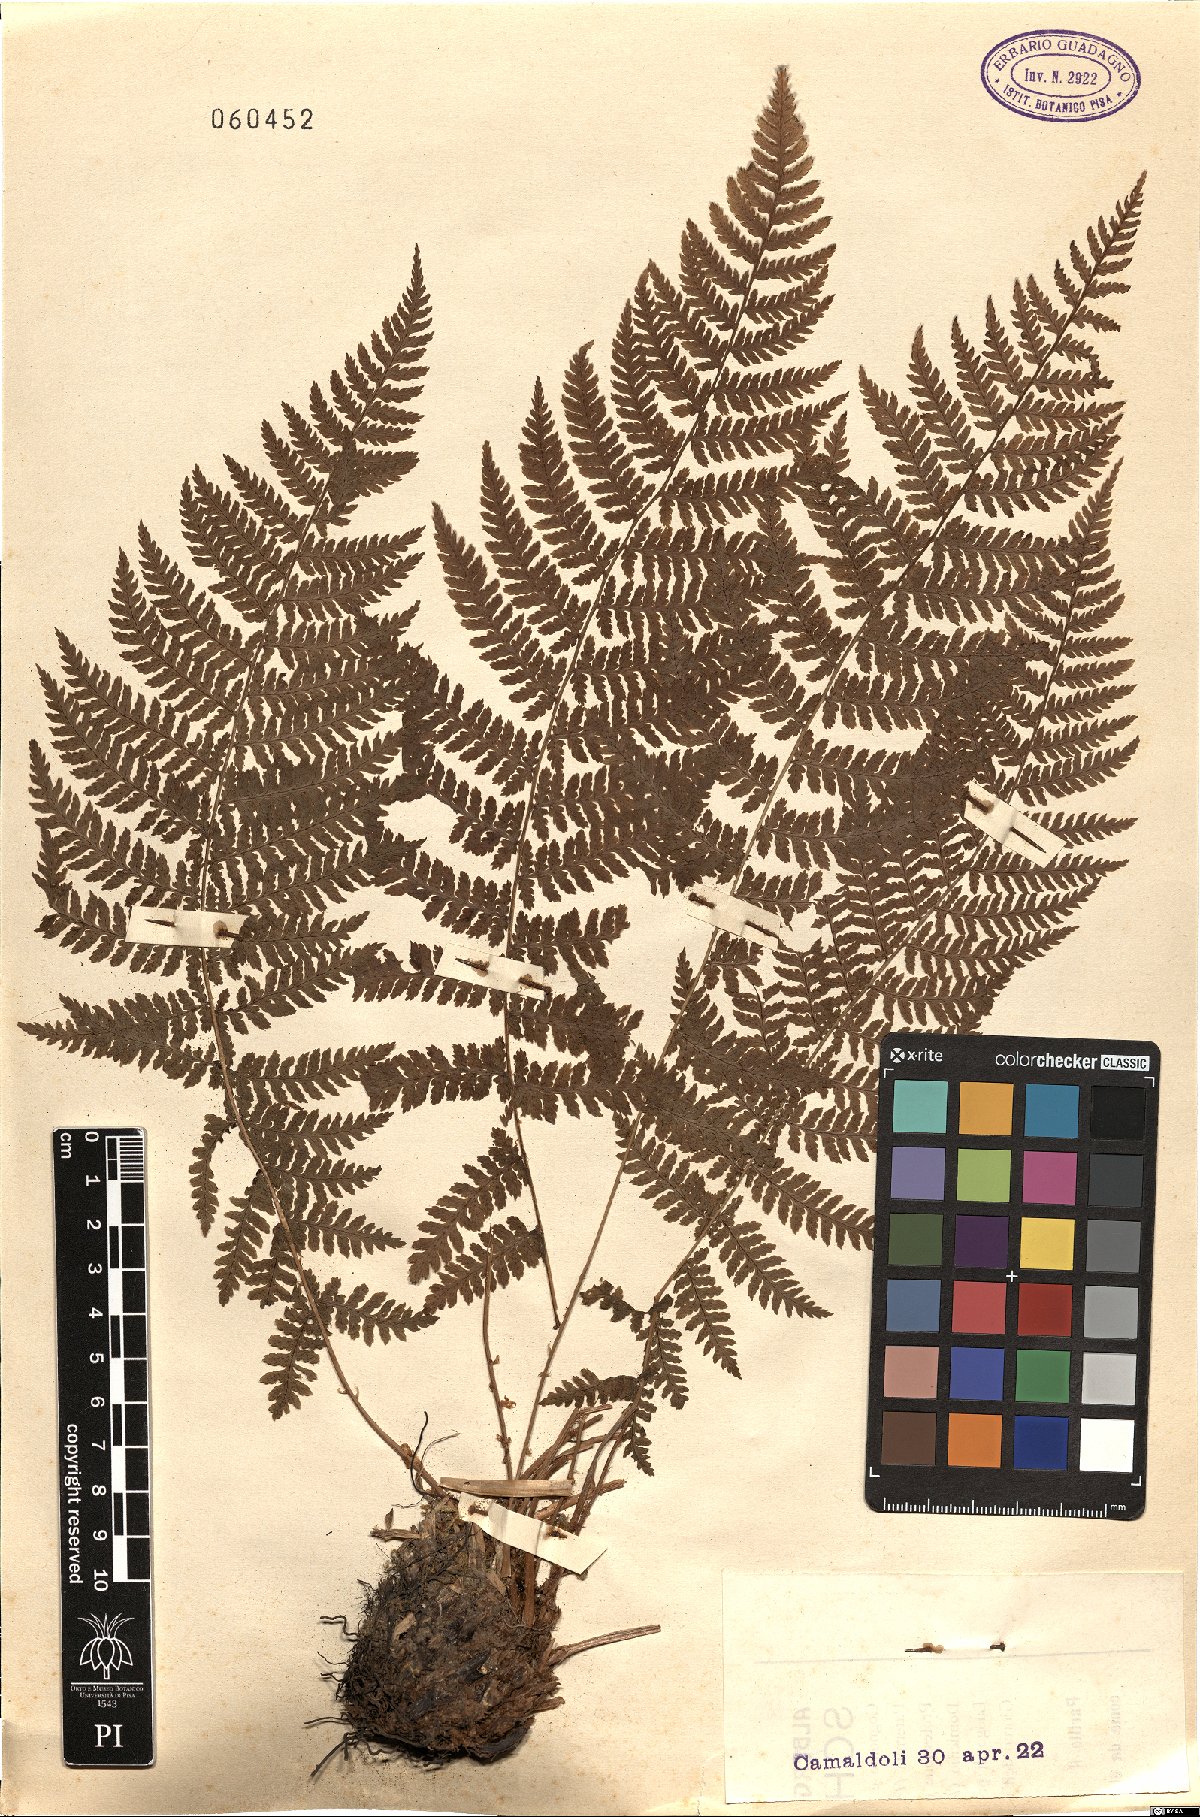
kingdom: Plantae
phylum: Tracheophyta
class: Polypodiopsida
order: Polypodiales
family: Dryopteridaceae
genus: Dryopteris
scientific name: Dryopteris
